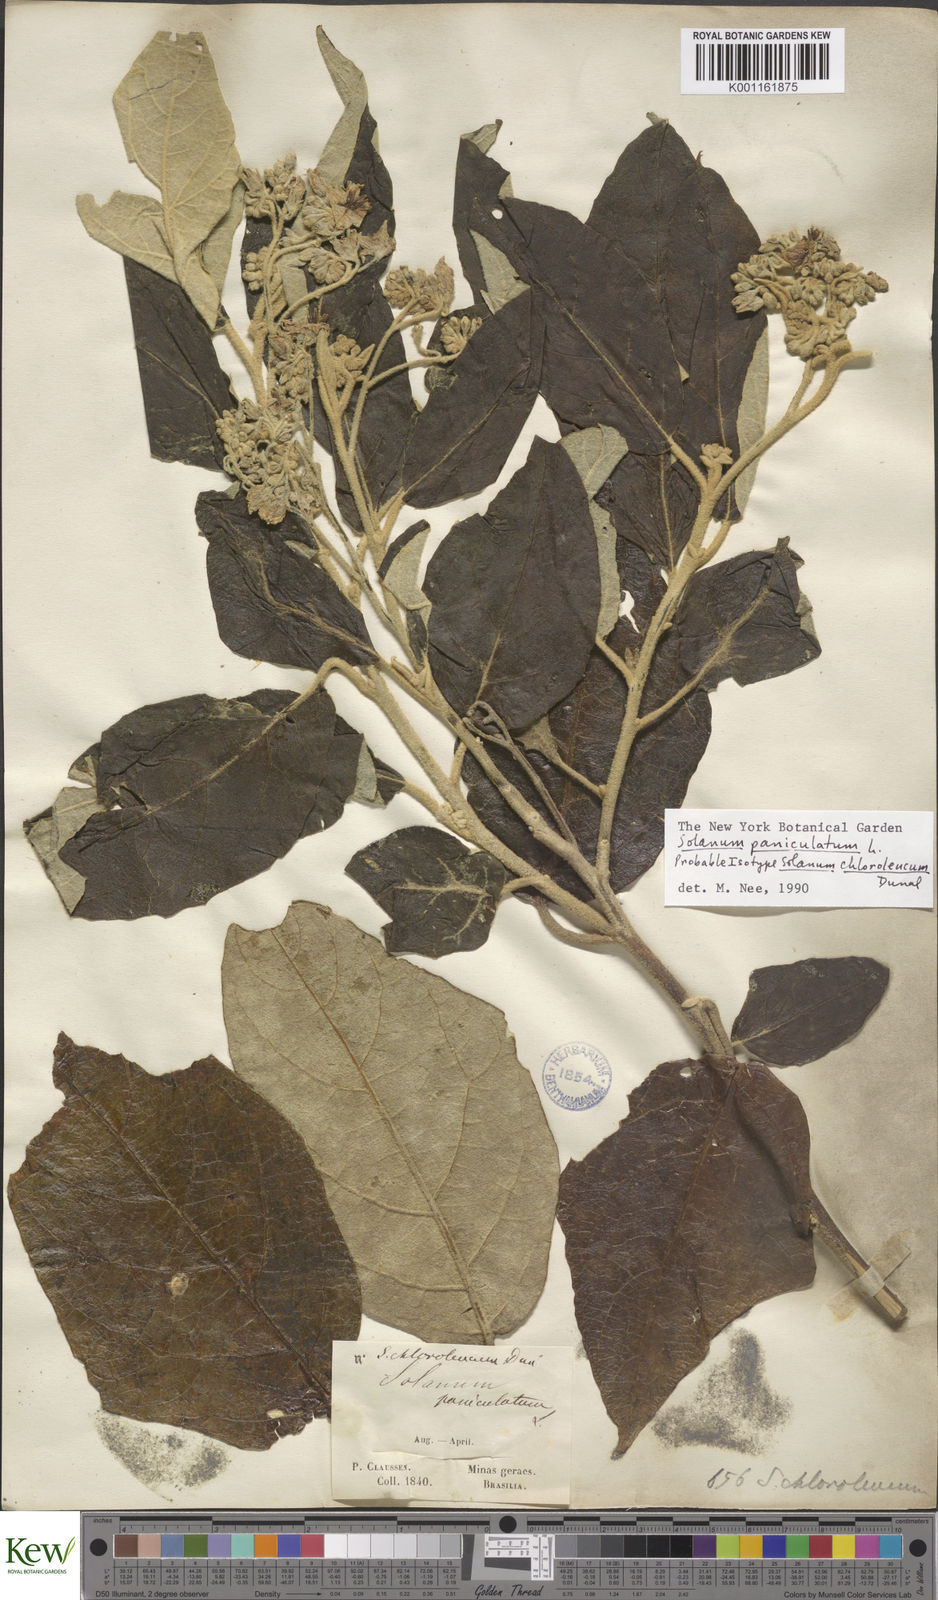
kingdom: Plantae
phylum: Tracheophyta
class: Magnoliopsida
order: Solanales
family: Solanaceae
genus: Solanum
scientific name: Solanum paniculatum
